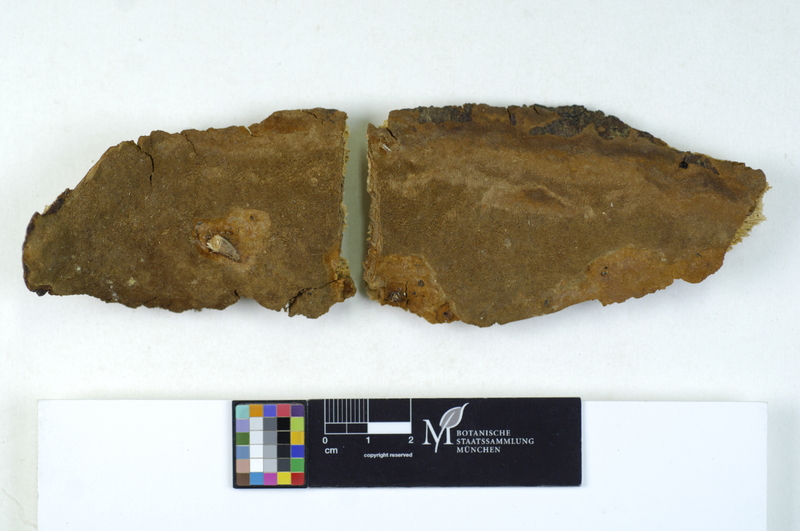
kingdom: Fungi
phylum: Basidiomycota
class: Agaricomycetes
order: Hymenochaetales
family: Hymenochaetaceae
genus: Fomitiporia
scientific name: Fomitiporia punctata
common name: Elbowpatch crust
